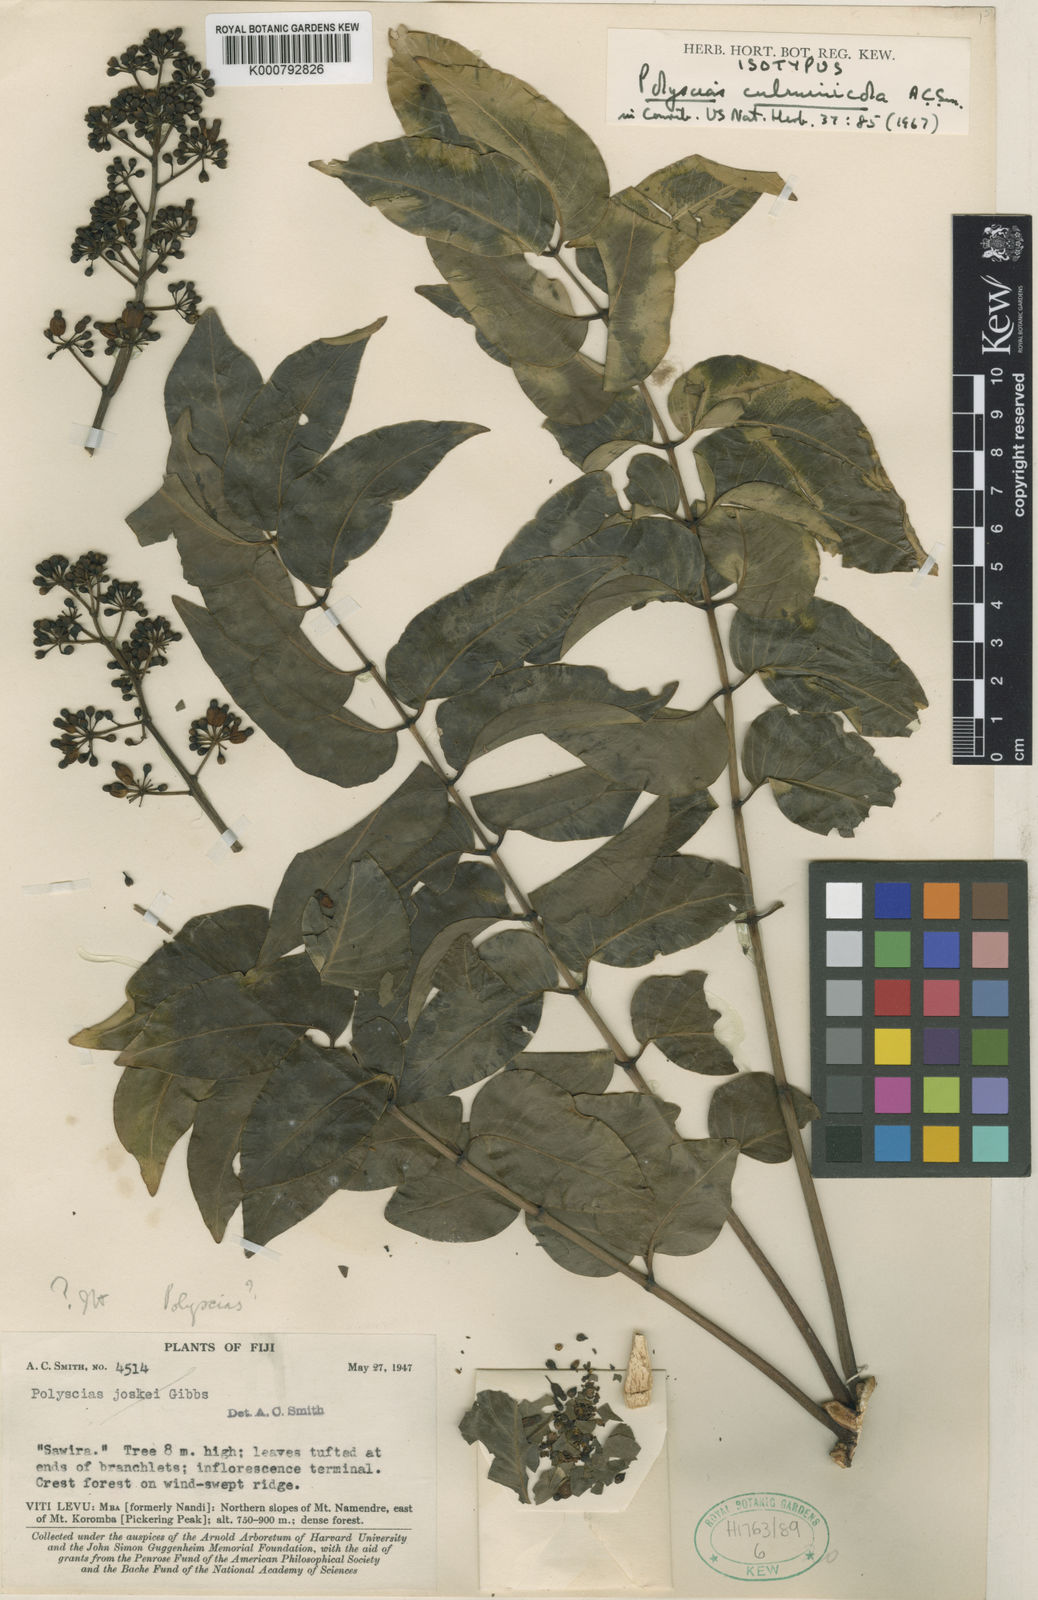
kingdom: Plantae
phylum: Tracheophyta
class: Magnoliopsida
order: Apiales
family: Araliaceae
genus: Polyscias
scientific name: Polyscias joskei
